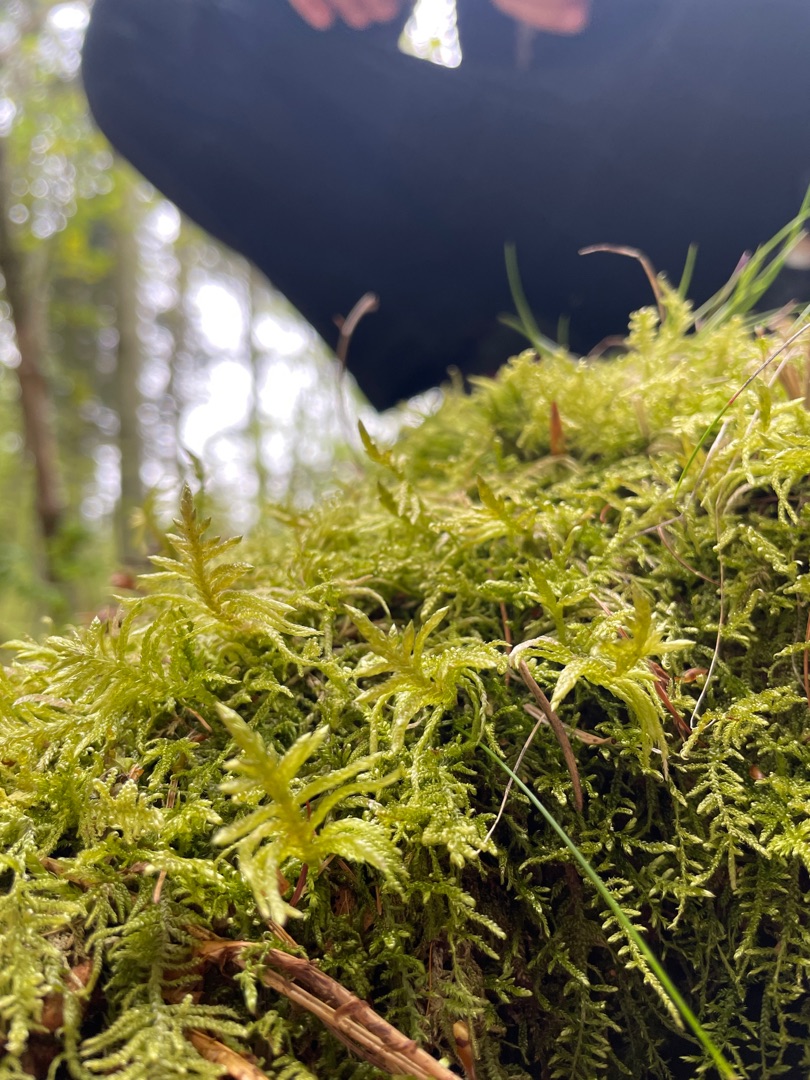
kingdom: Plantae
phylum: Bryophyta
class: Bryopsida
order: Hypnales
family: Brachytheciaceae
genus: Pseudoscleropodium
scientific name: Pseudoscleropodium purum
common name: Hulbladet fedtmos
